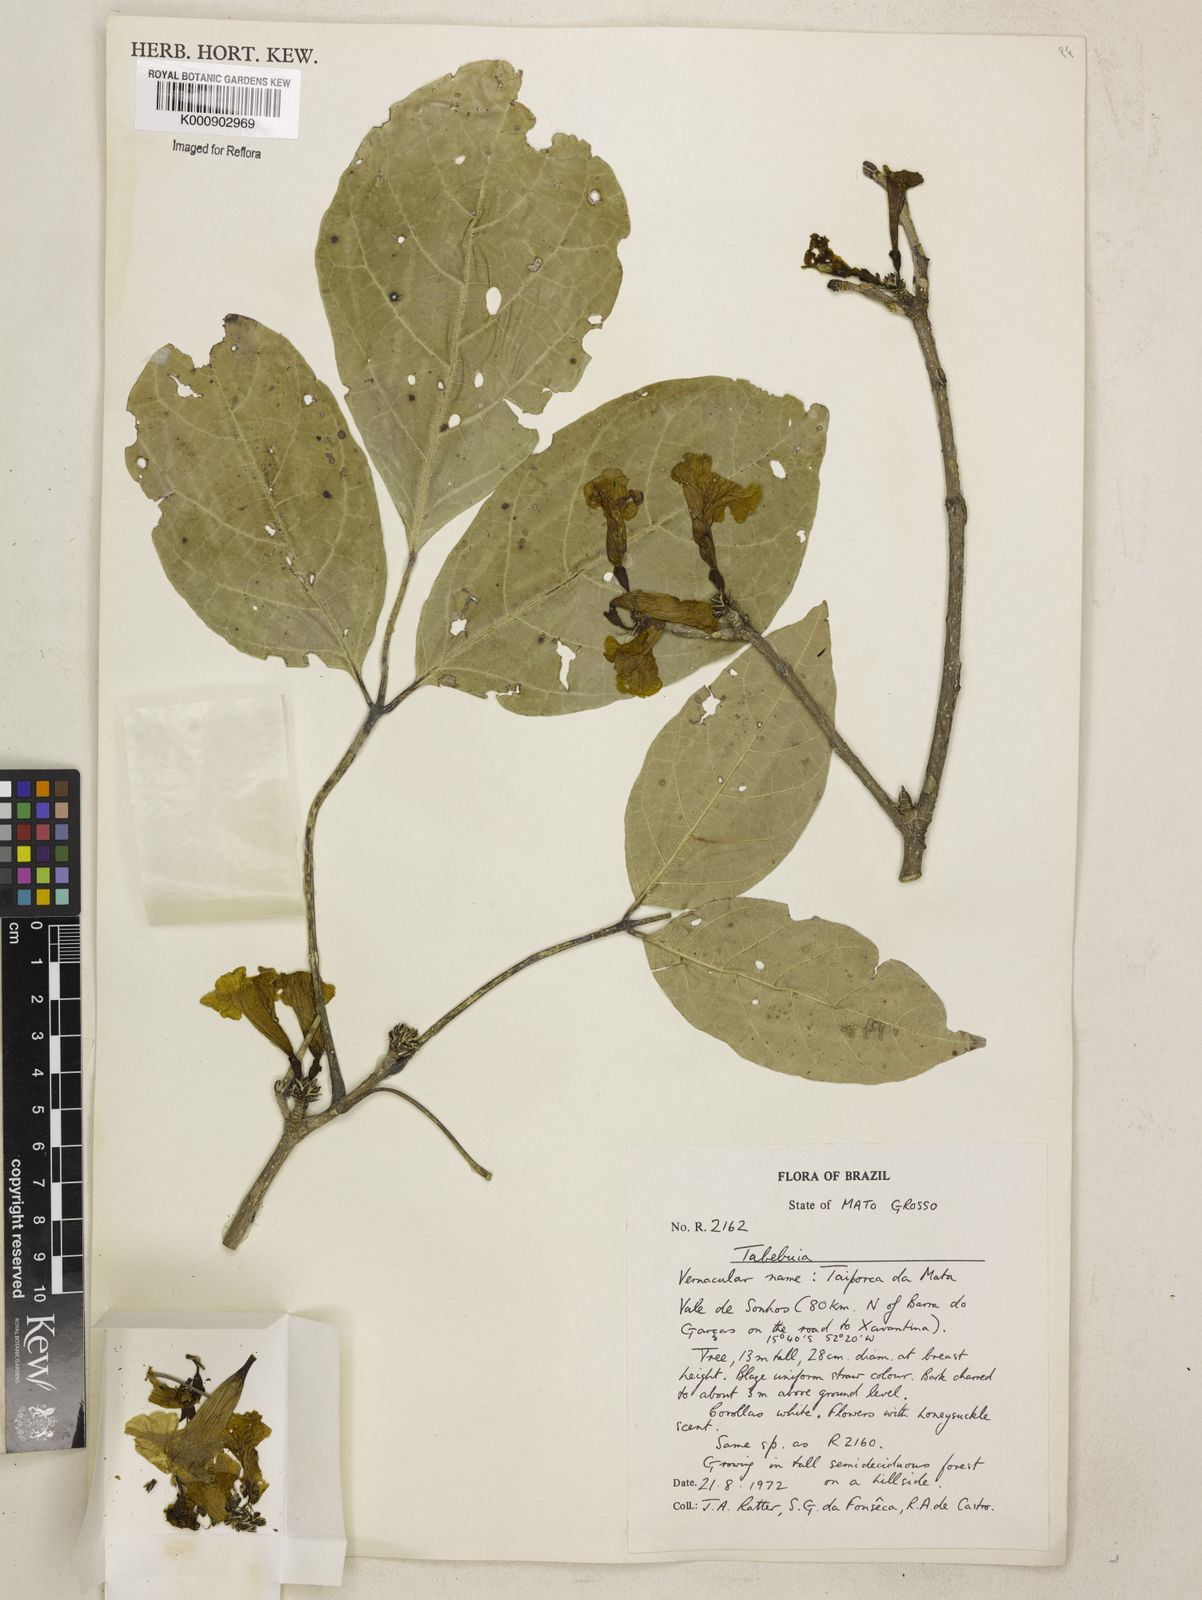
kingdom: Plantae
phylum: Tracheophyta
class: Magnoliopsida
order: Lamiales
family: Bignoniaceae
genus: Tabebuia
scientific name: Tabebuia
